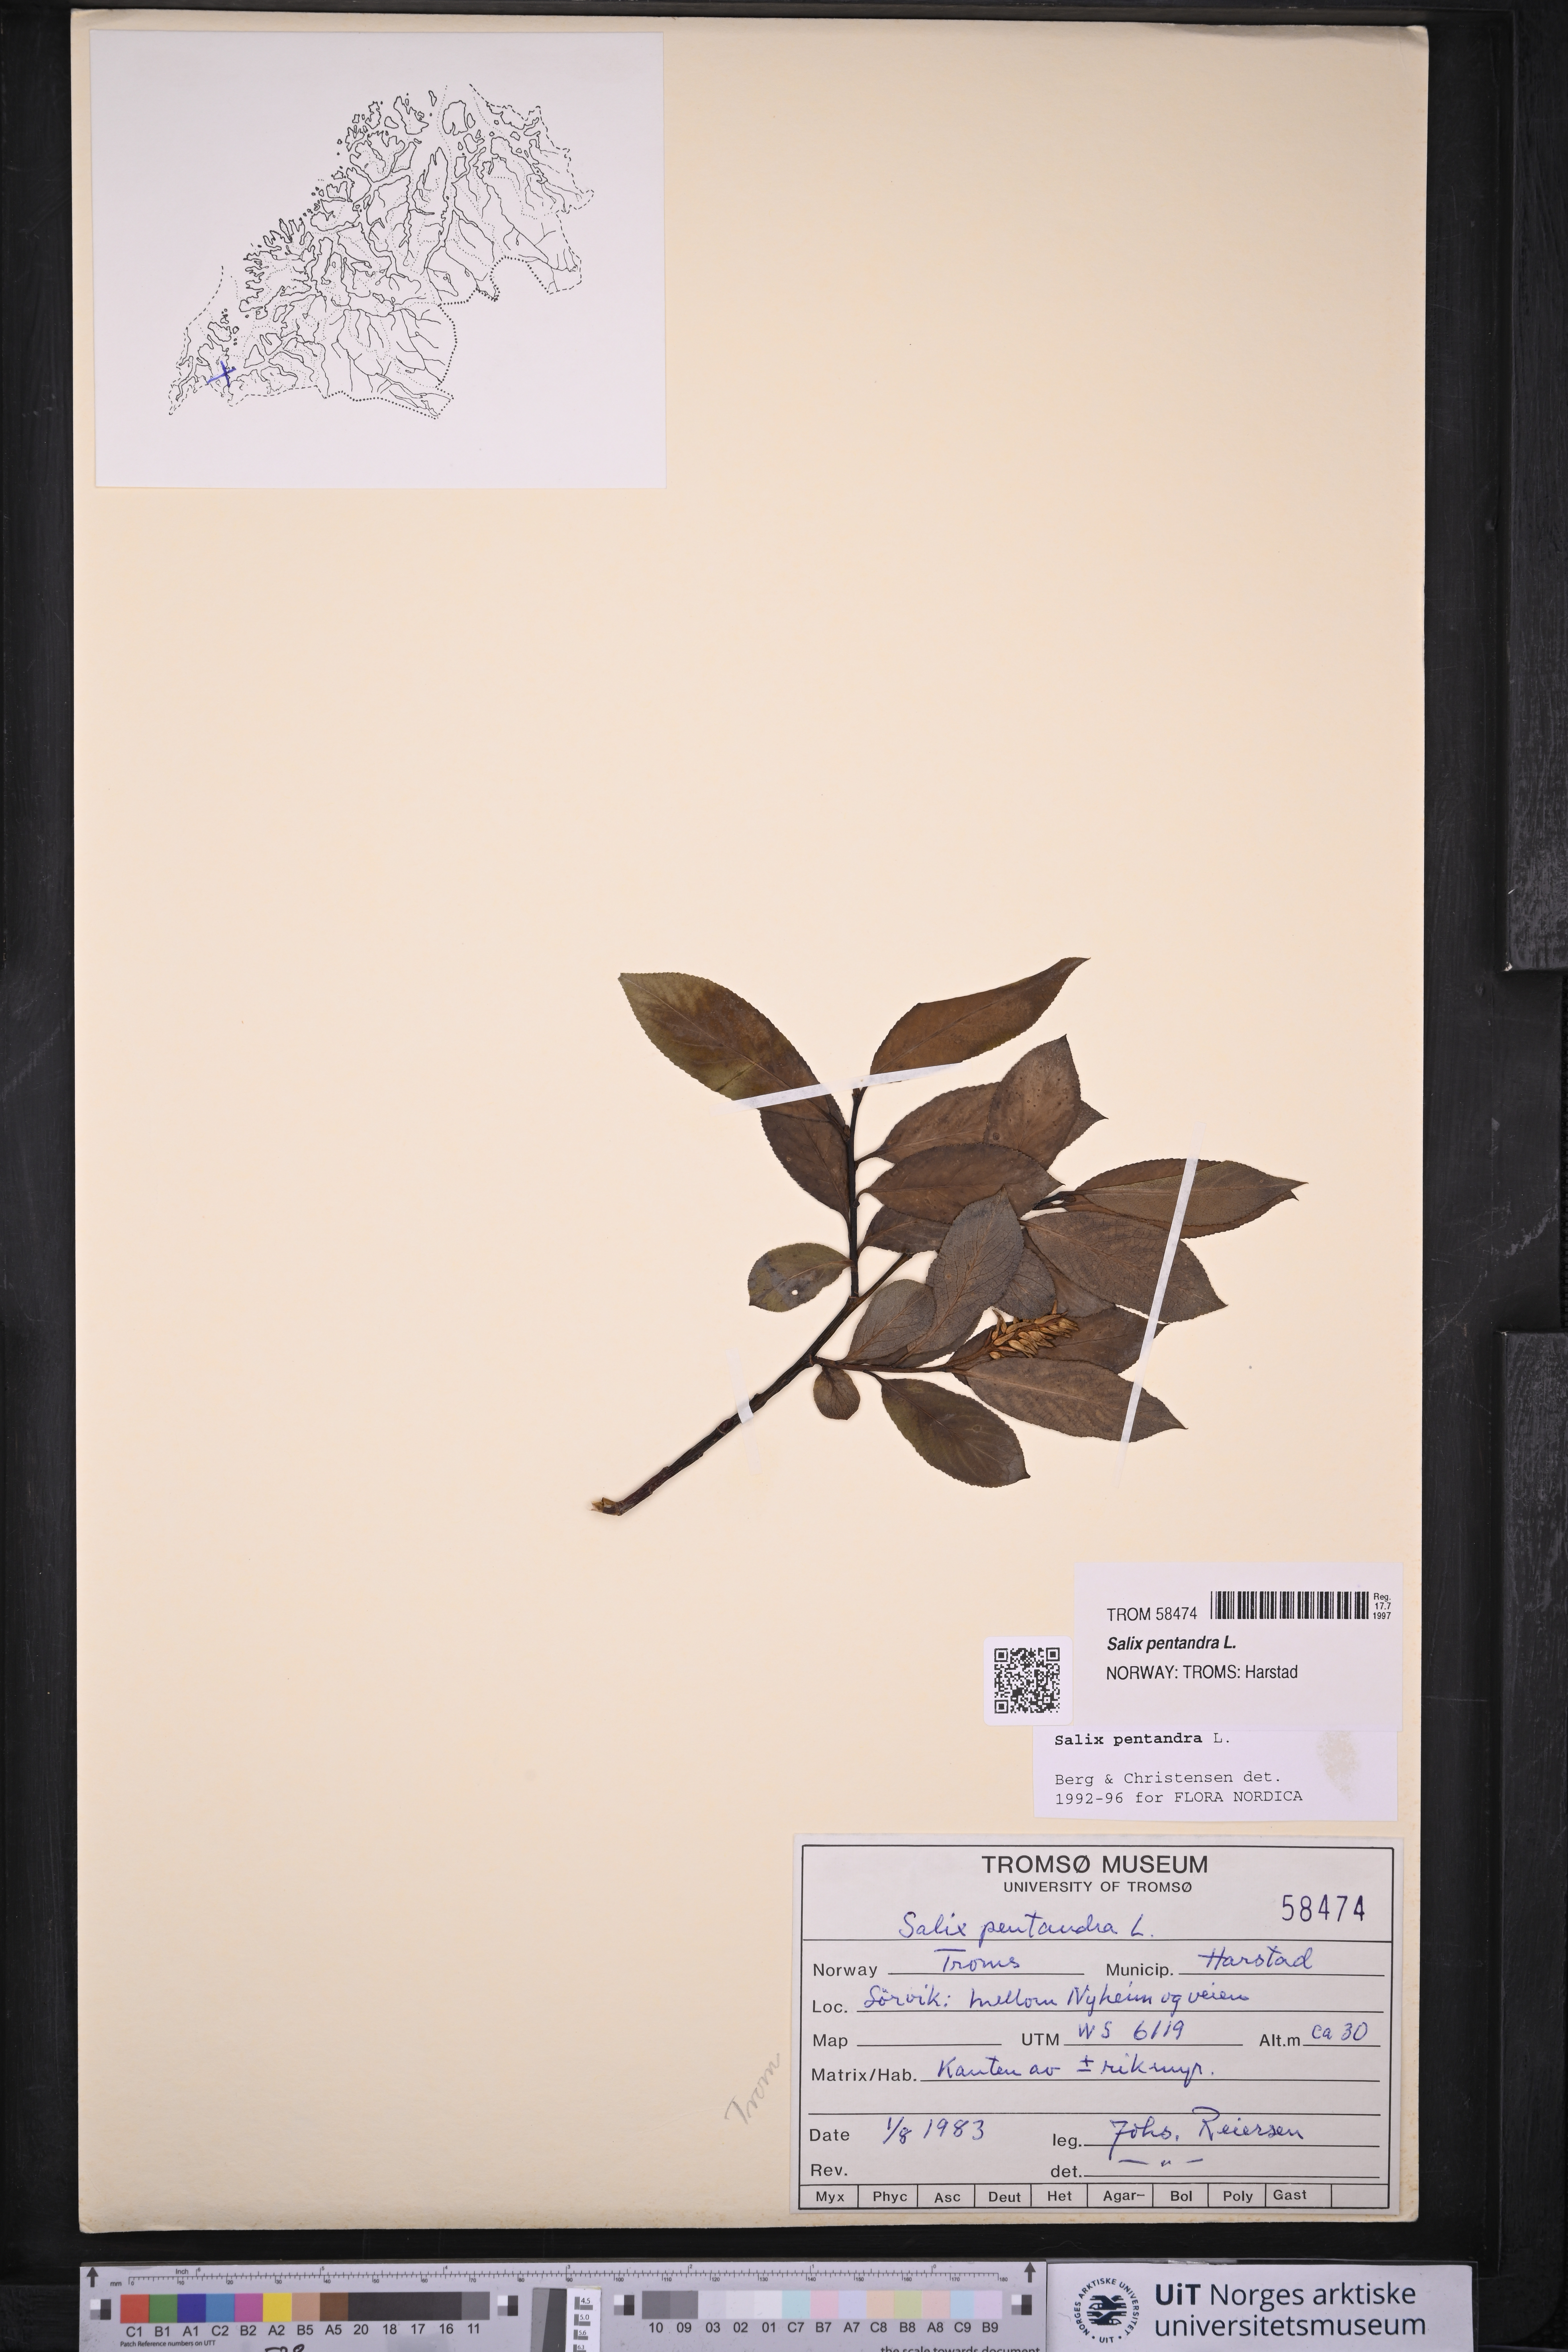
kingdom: Plantae
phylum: Tracheophyta
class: Magnoliopsida
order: Malpighiales
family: Salicaceae
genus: Salix
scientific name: Salix pentandra
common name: Bay willow
